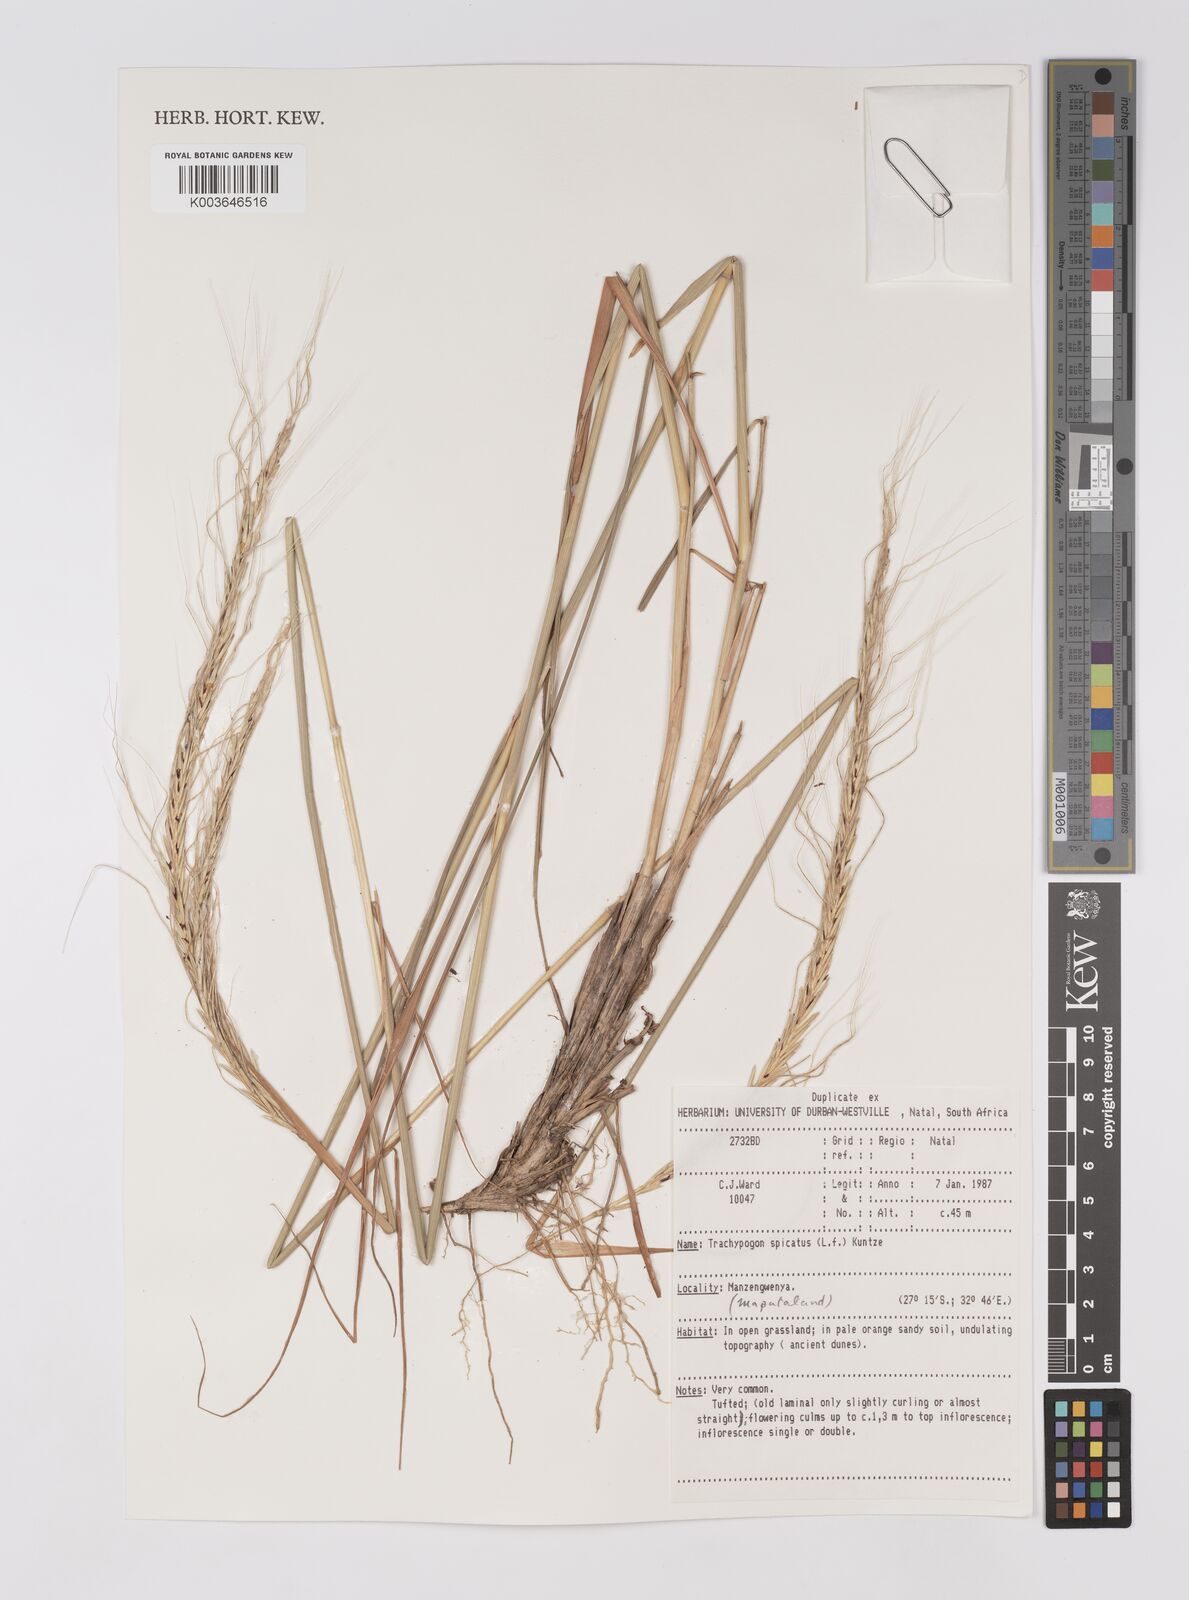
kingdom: Plantae
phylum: Tracheophyta
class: Liliopsida
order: Poales
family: Poaceae
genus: Trachypogon
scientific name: Trachypogon spicatus
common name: Crinkle-awn
